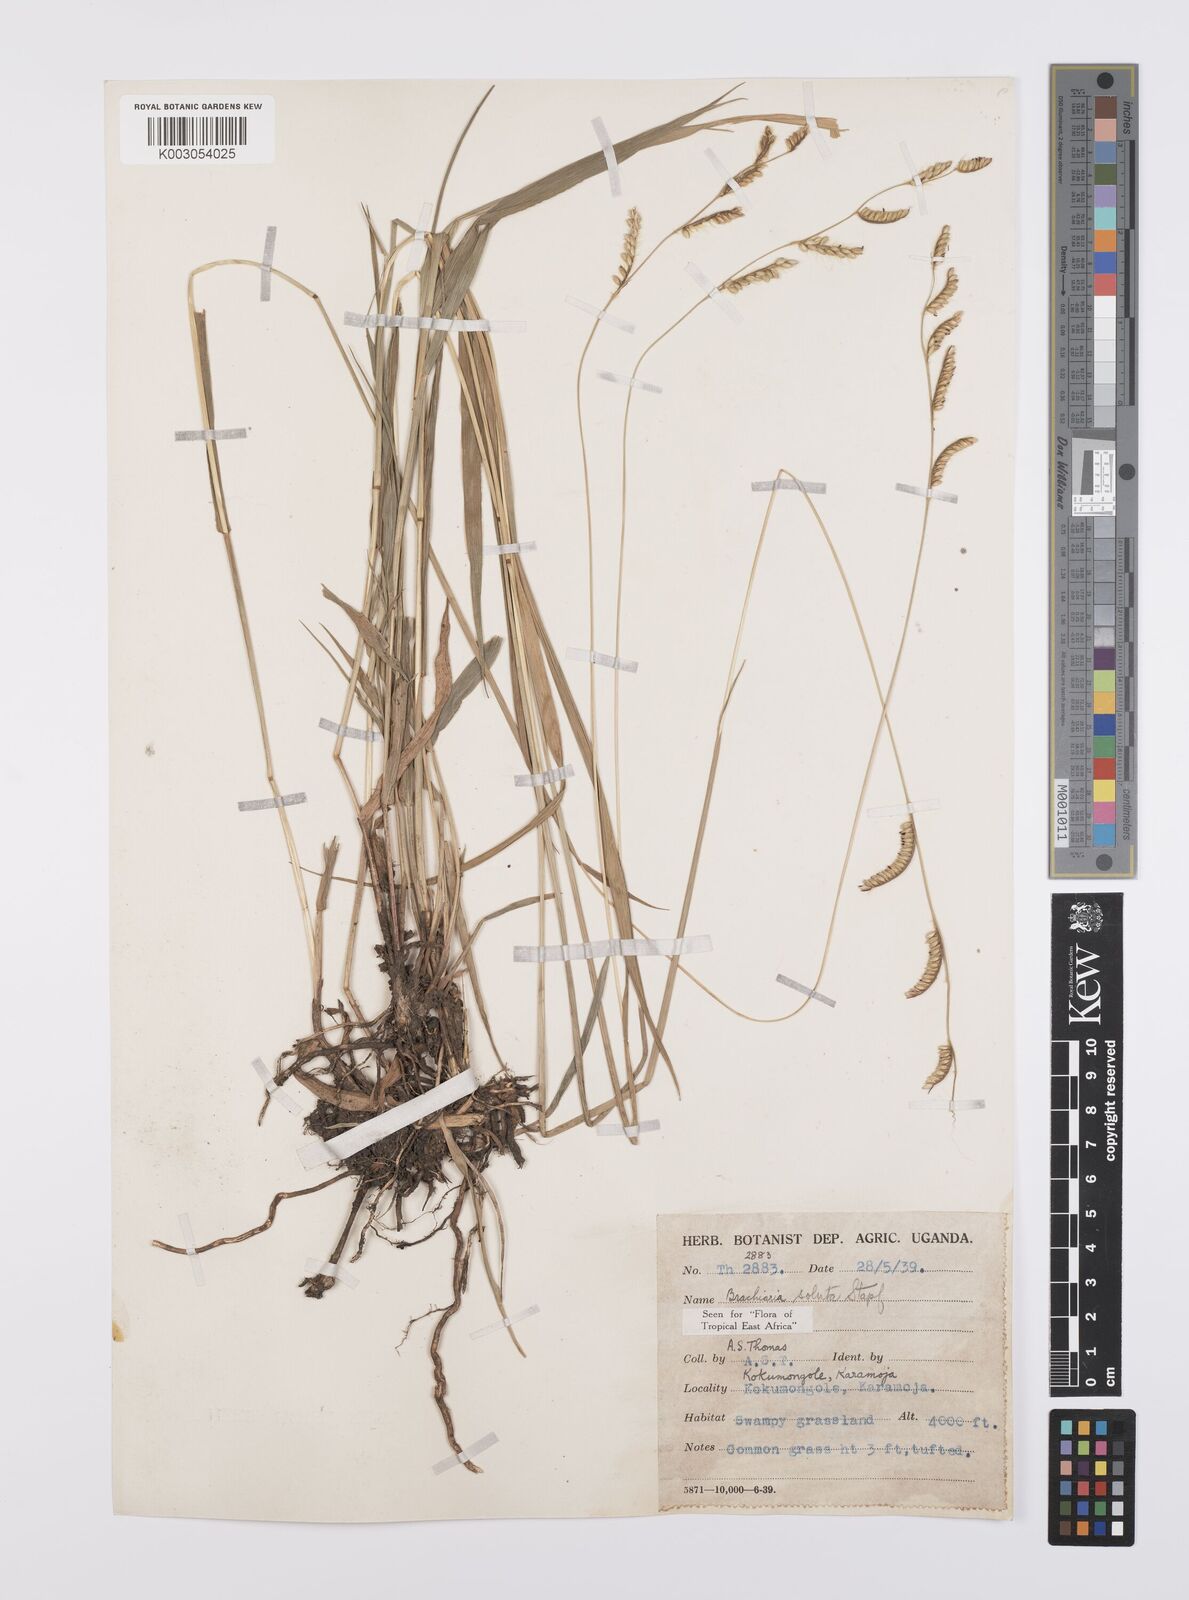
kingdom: Plantae
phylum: Tracheophyta
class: Liliopsida
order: Poales
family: Poaceae
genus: Urochloa
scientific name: Urochloa jubata
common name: Buffalograss
